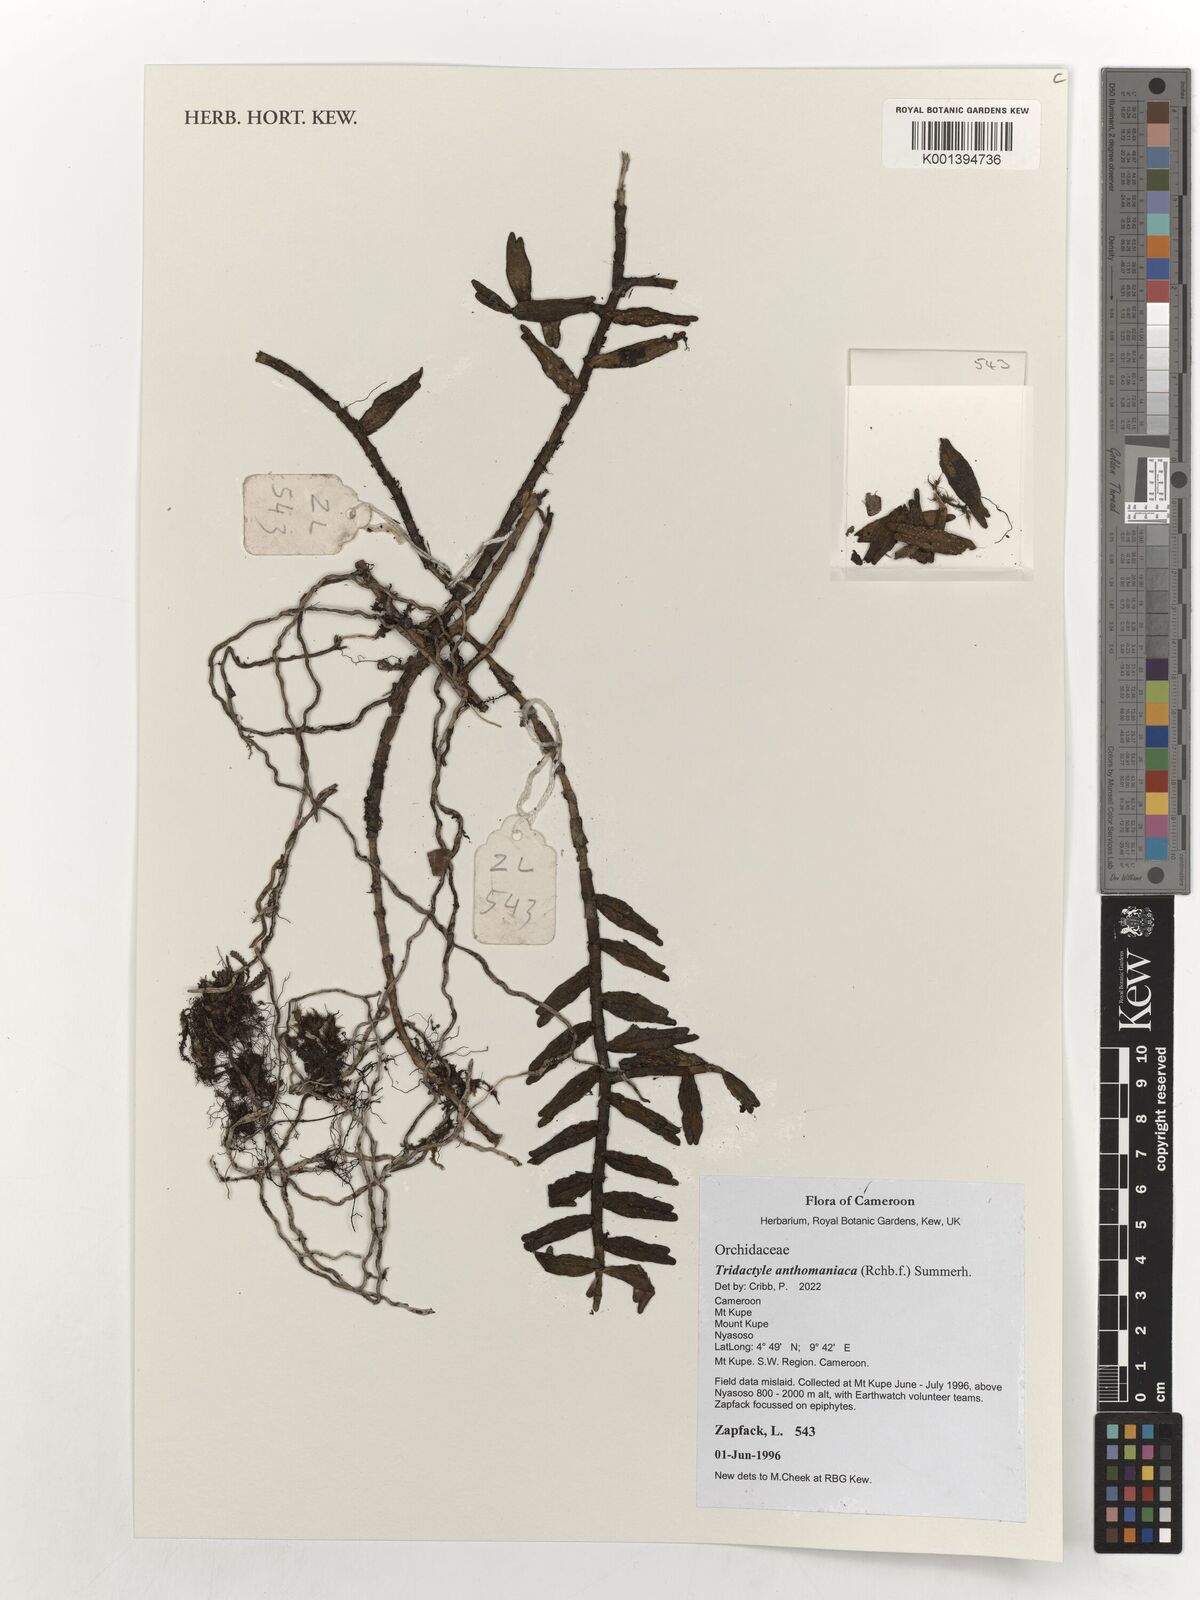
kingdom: Plantae
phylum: Tracheophyta
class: Liliopsida
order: Asparagales
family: Orchidaceae
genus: Tridactyle
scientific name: Tridactyle anthomaniaca
